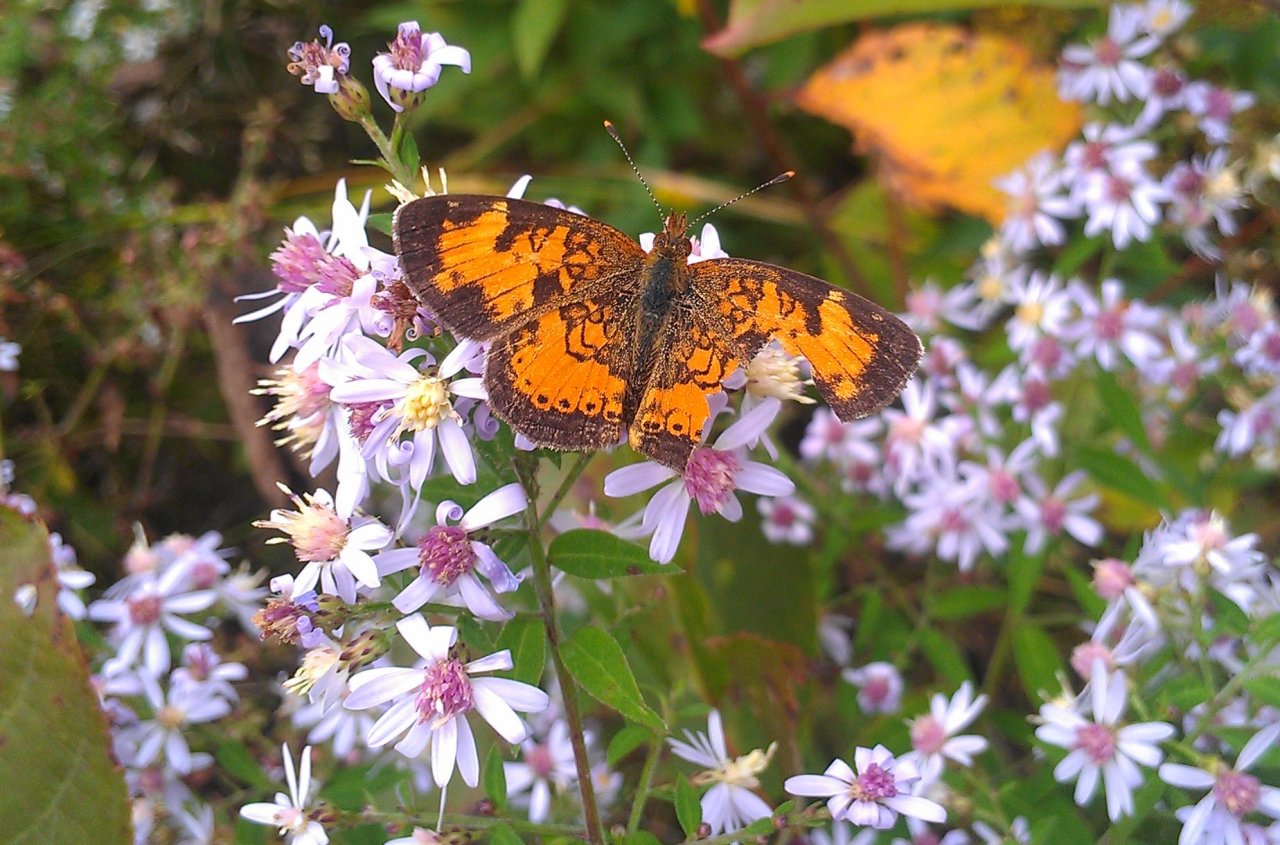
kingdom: Animalia
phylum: Arthropoda
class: Insecta
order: Lepidoptera
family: Nymphalidae
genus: Phyciodes
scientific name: Phyciodes tharos
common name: Northern Crescent
